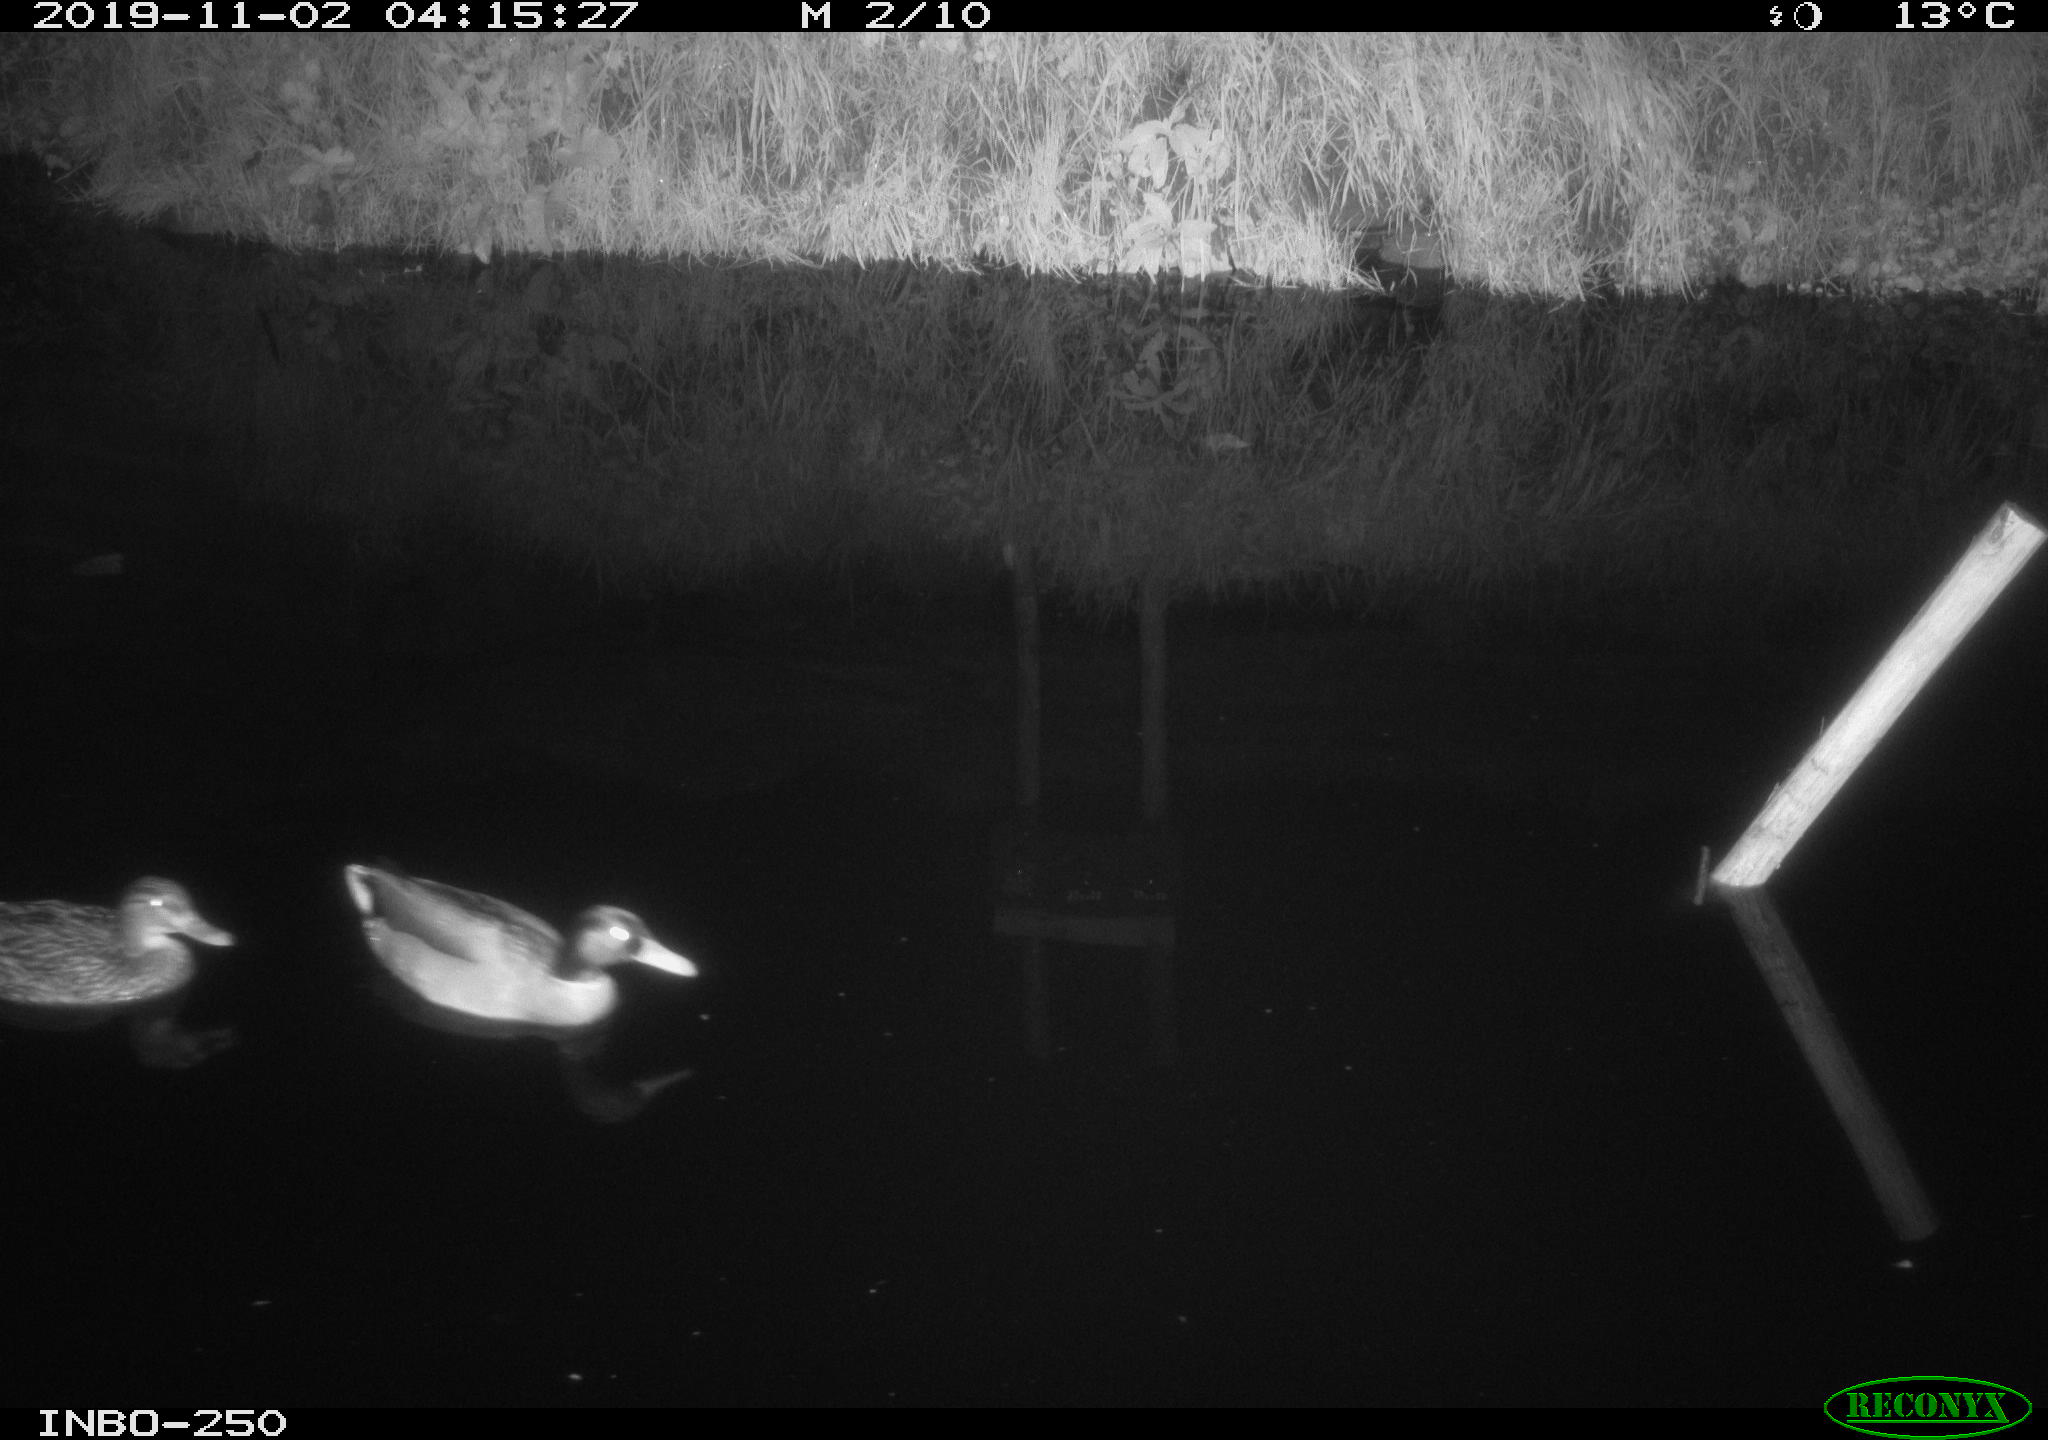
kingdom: Animalia
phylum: Chordata
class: Aves
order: Anseriformes
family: Anatidae
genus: Anas
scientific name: Anas platyrhynchos
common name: Mallard
